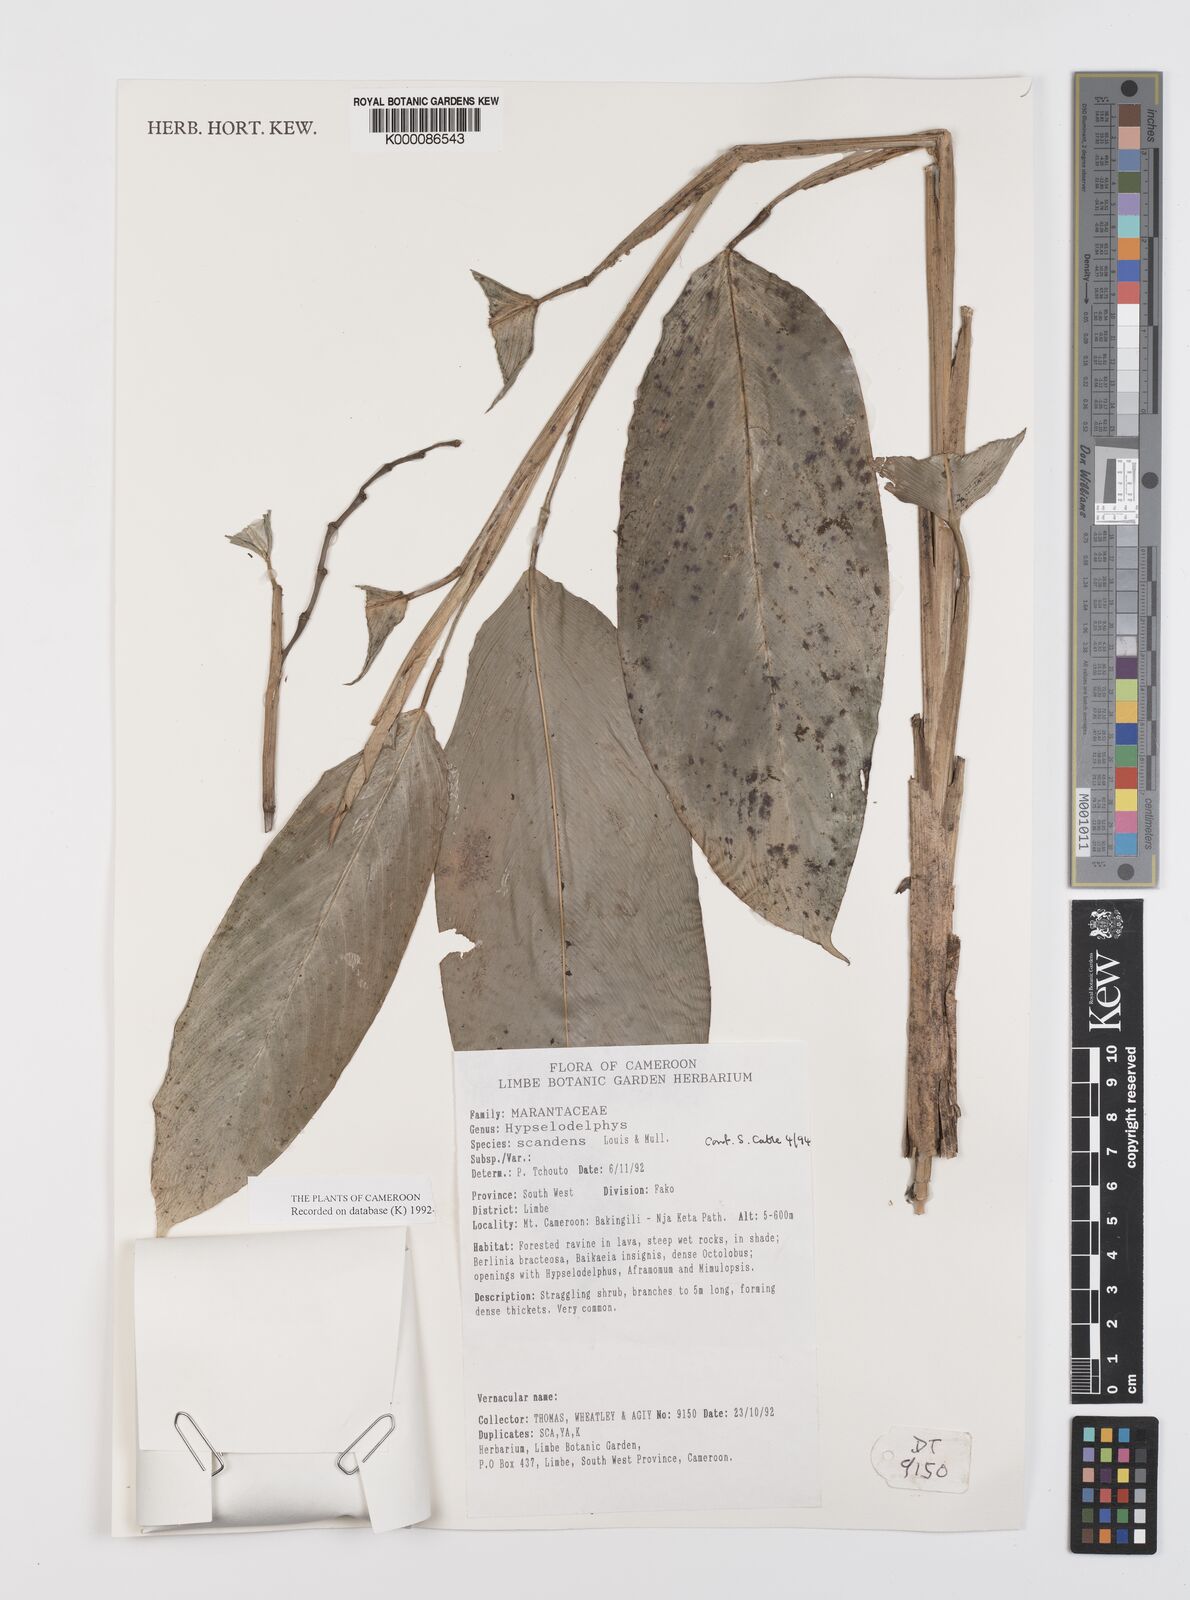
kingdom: Plantae
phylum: Tracheophyta
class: Liliopsida
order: Zingiberales
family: Marantaceae
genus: Hypselodelphys
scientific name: Hypselodelphys scandens
